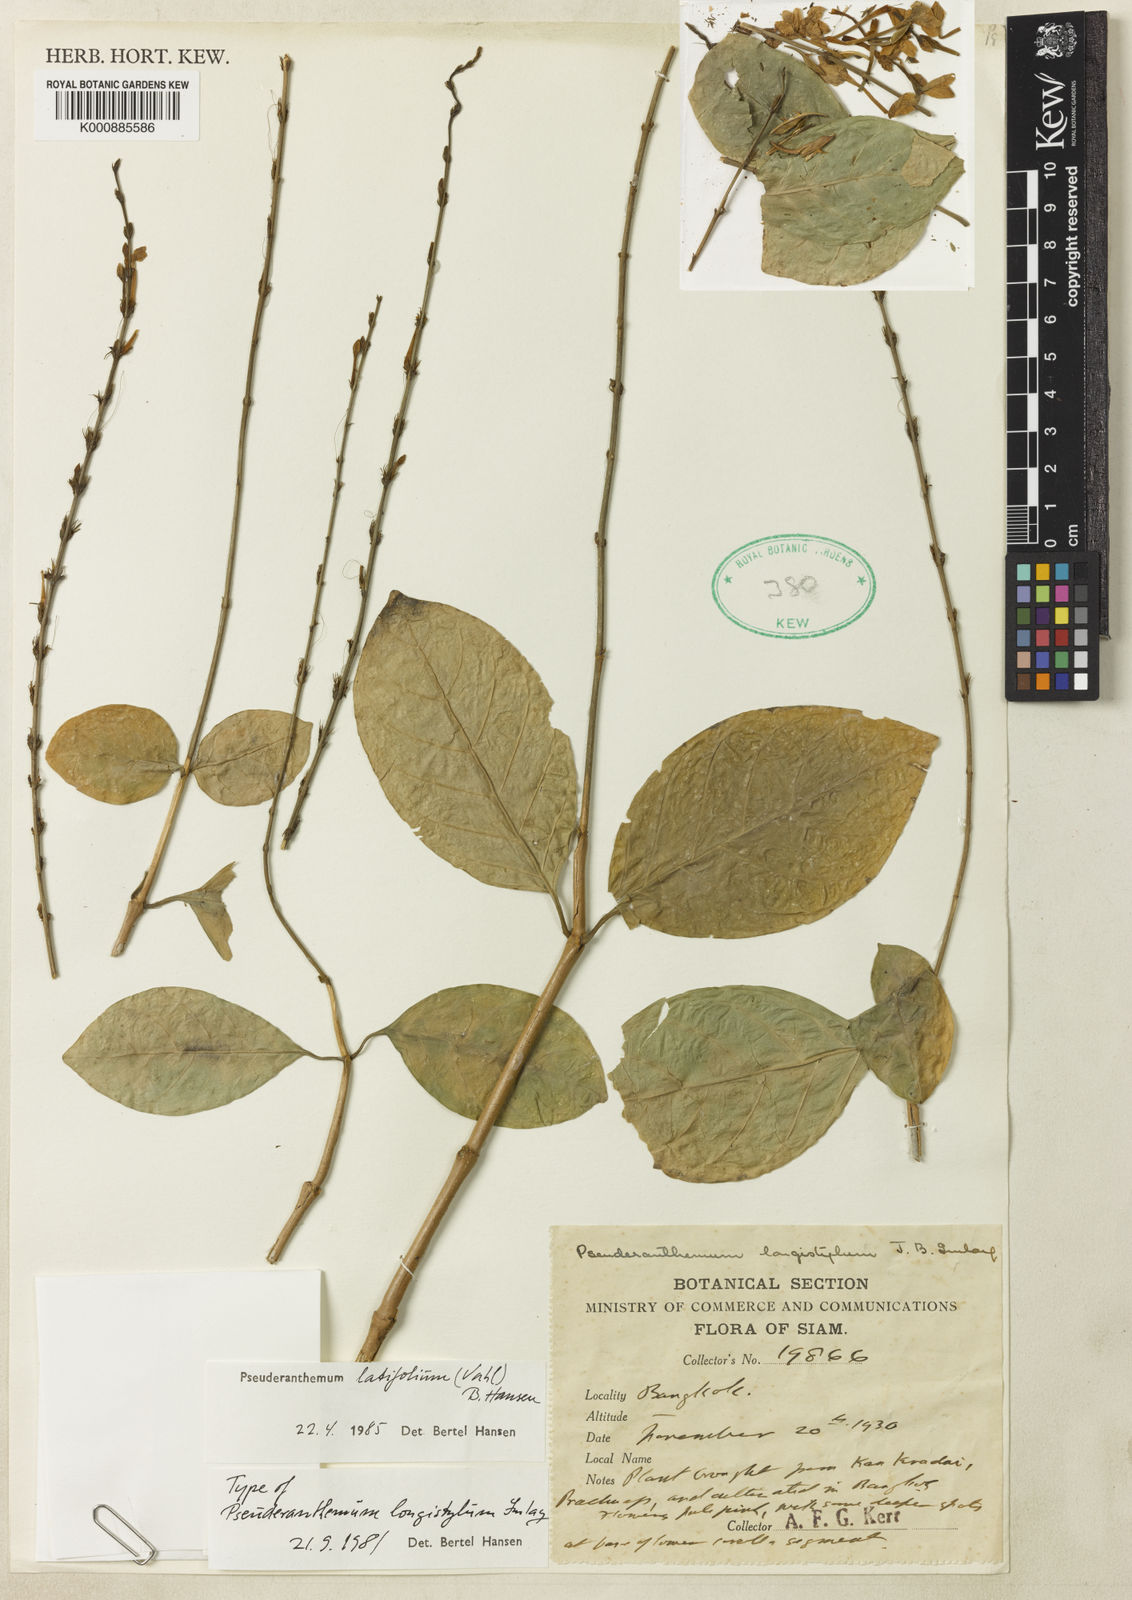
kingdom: Plantae
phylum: Tracheophyta
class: Magnoliopsida
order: Lamiales
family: Acanthaceae
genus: Pseuderanthemum
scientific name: Pseuderanthemum latifolium
